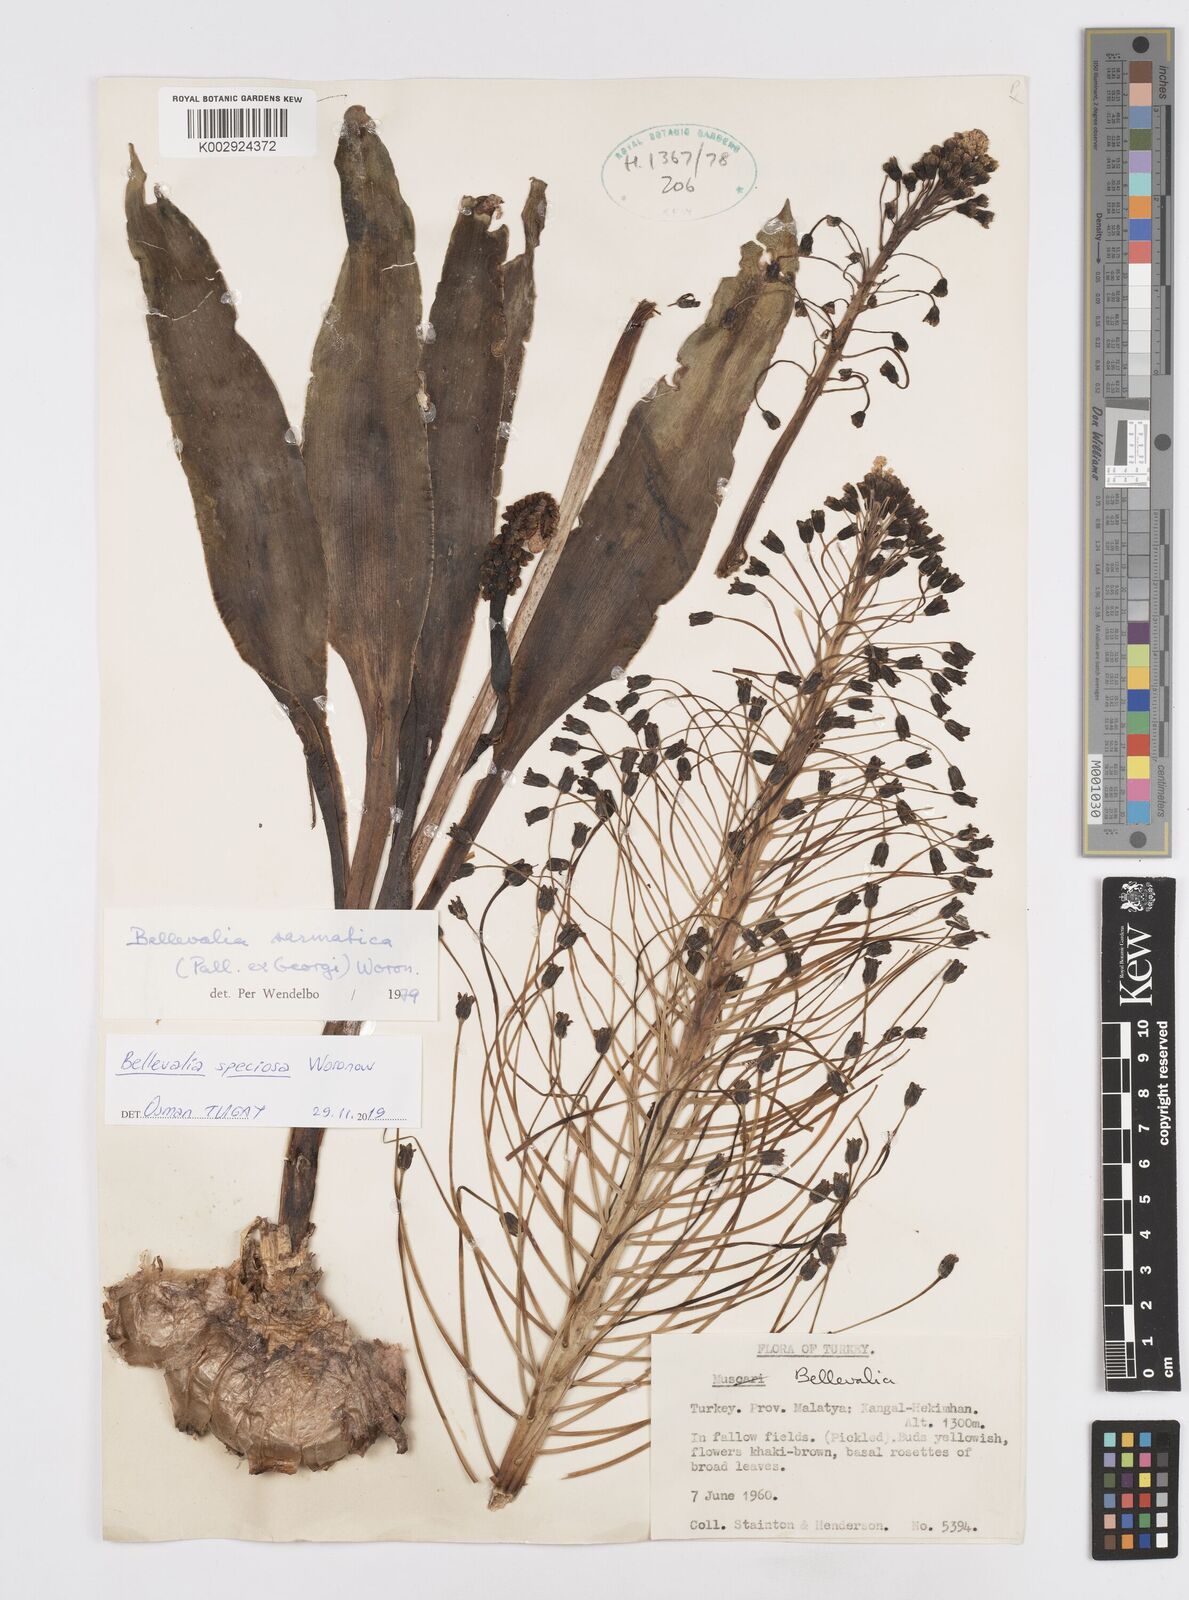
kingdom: Plantae
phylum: Tracheophyta
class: Liliopsida
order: Asparagales
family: Asparagaceae
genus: Bellevalia
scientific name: Bellevalia speciosa
